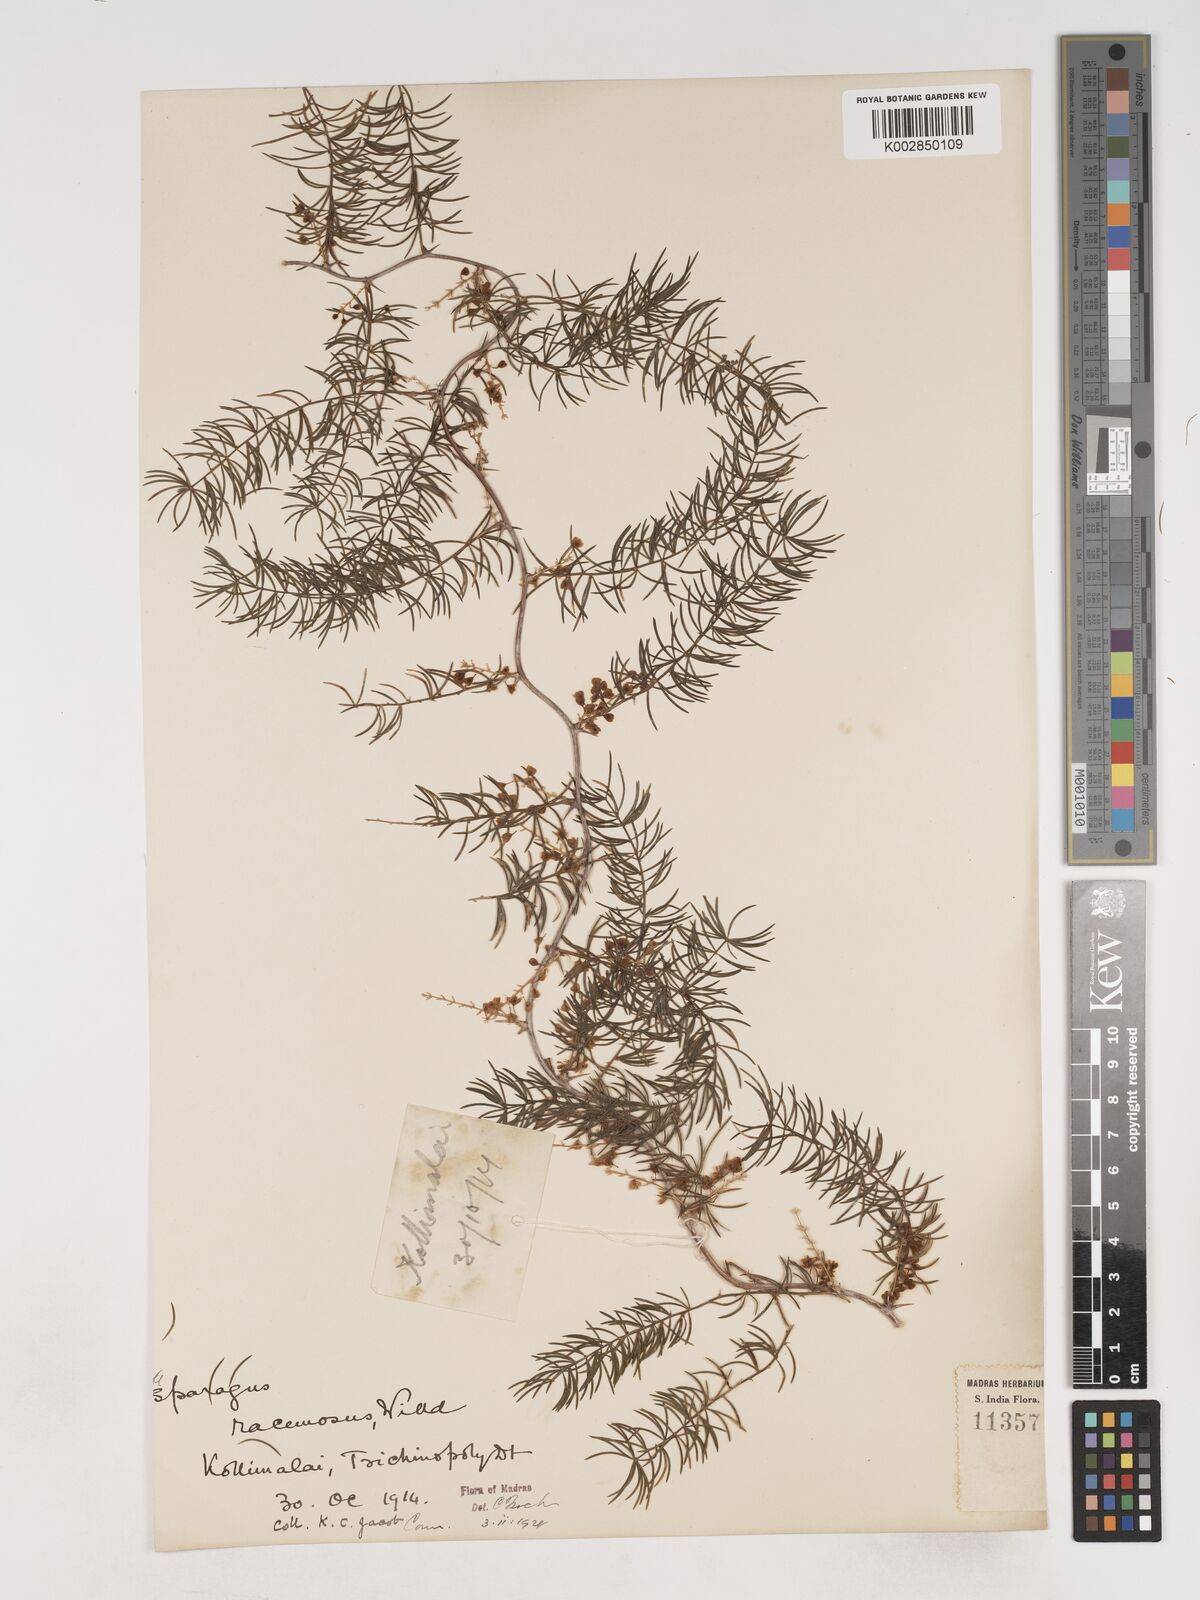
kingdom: Plantae
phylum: Tracheophyta
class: Liliopsida
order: Asparagales
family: Asparagaceae
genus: Asparagus
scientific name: Asparagus racemosus
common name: Asparagus-fern
